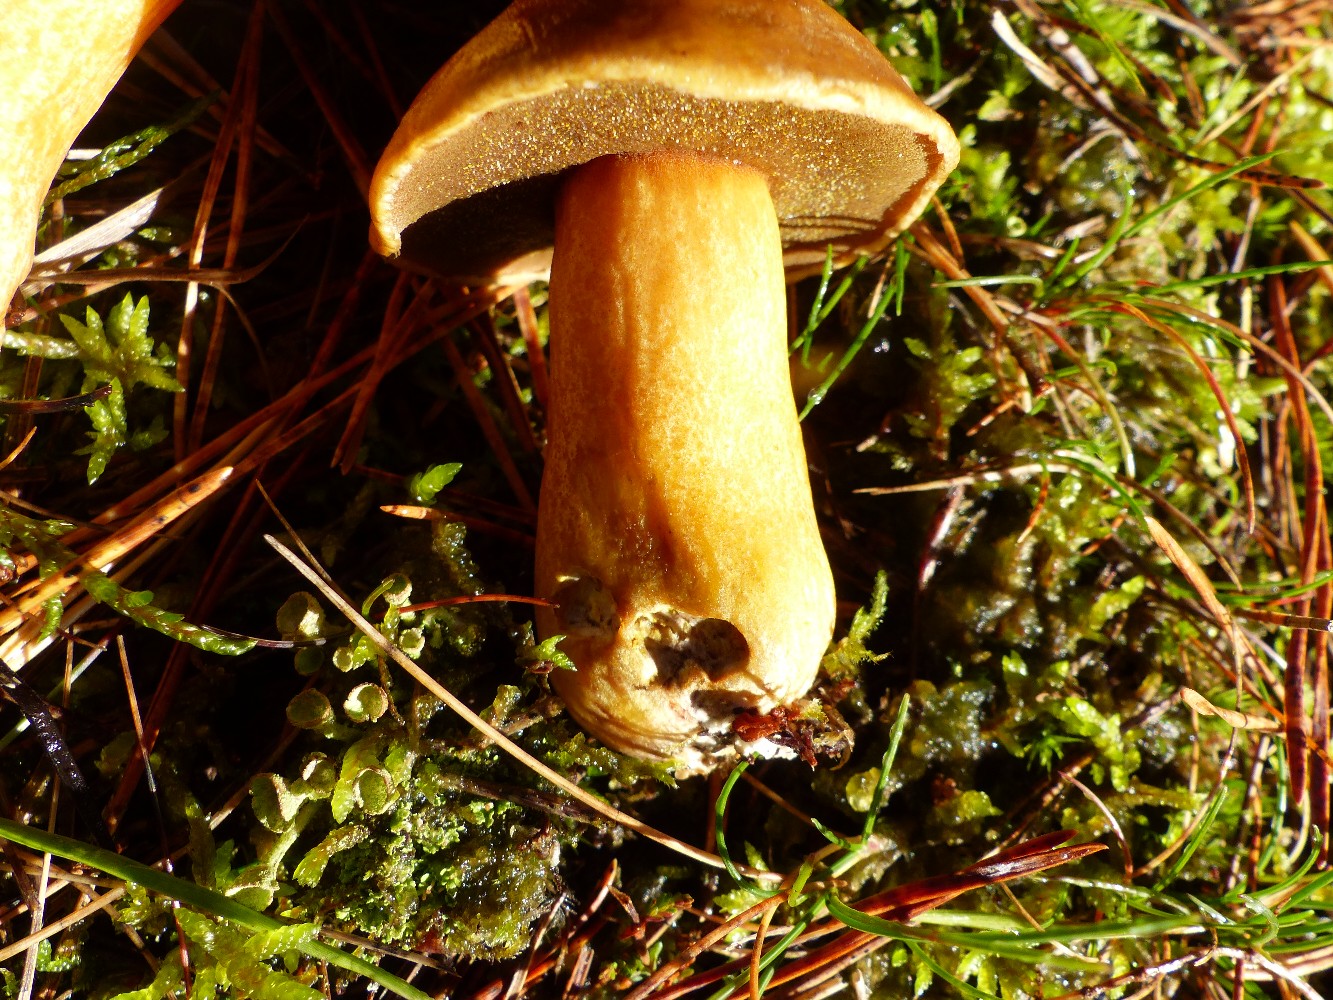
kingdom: Fungi
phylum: Basidiomycota
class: Agaricomycetes
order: Boletales
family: Suillaceae
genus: Suillus
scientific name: Suillus variegatus
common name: broget slimrørhat
